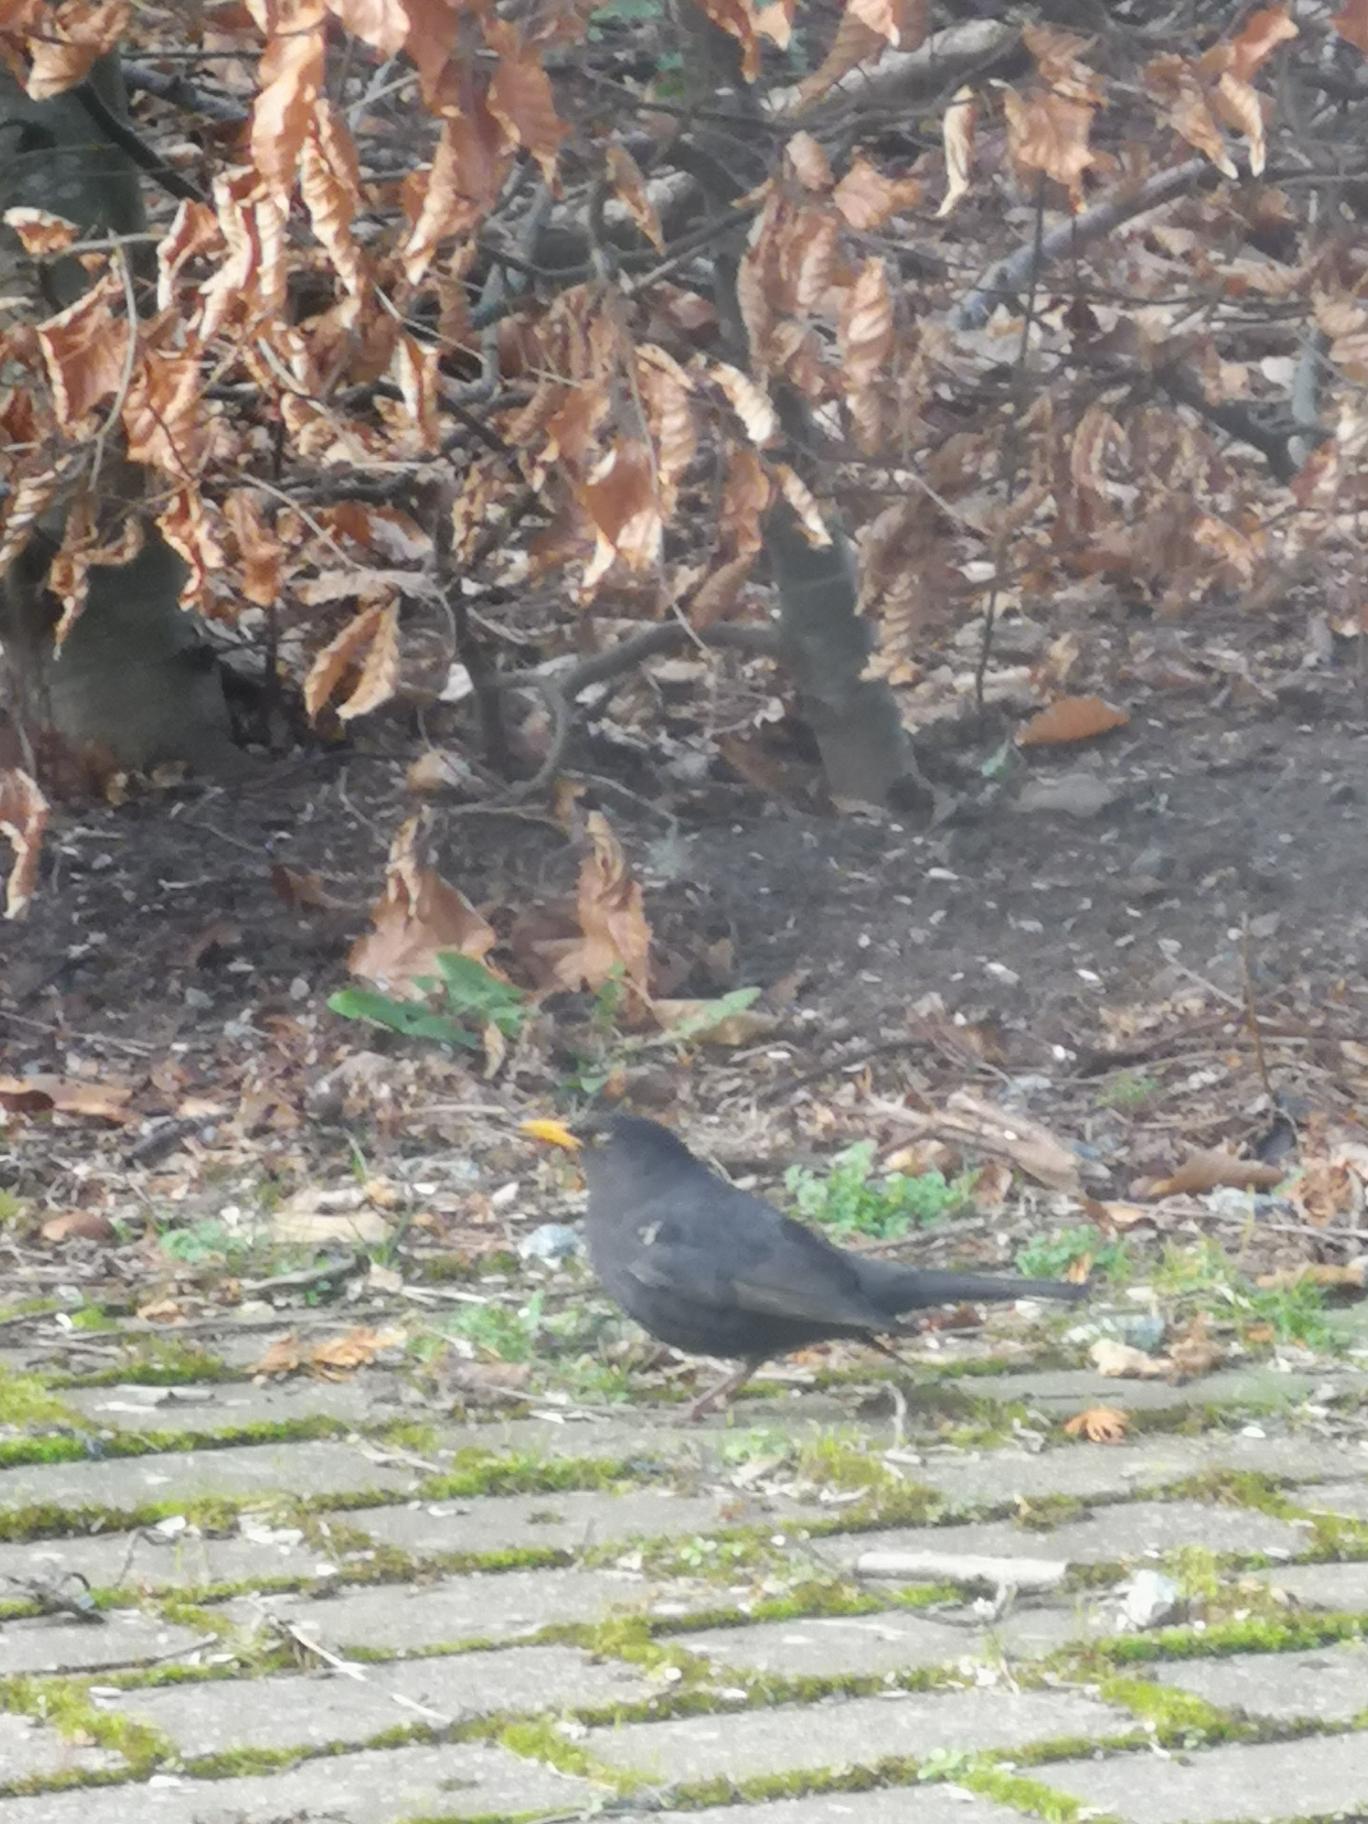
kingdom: Animalia
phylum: Chordata
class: Aves
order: Passeriformes
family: Turdidae
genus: Turdus
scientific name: Turdus merula
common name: Solsort
